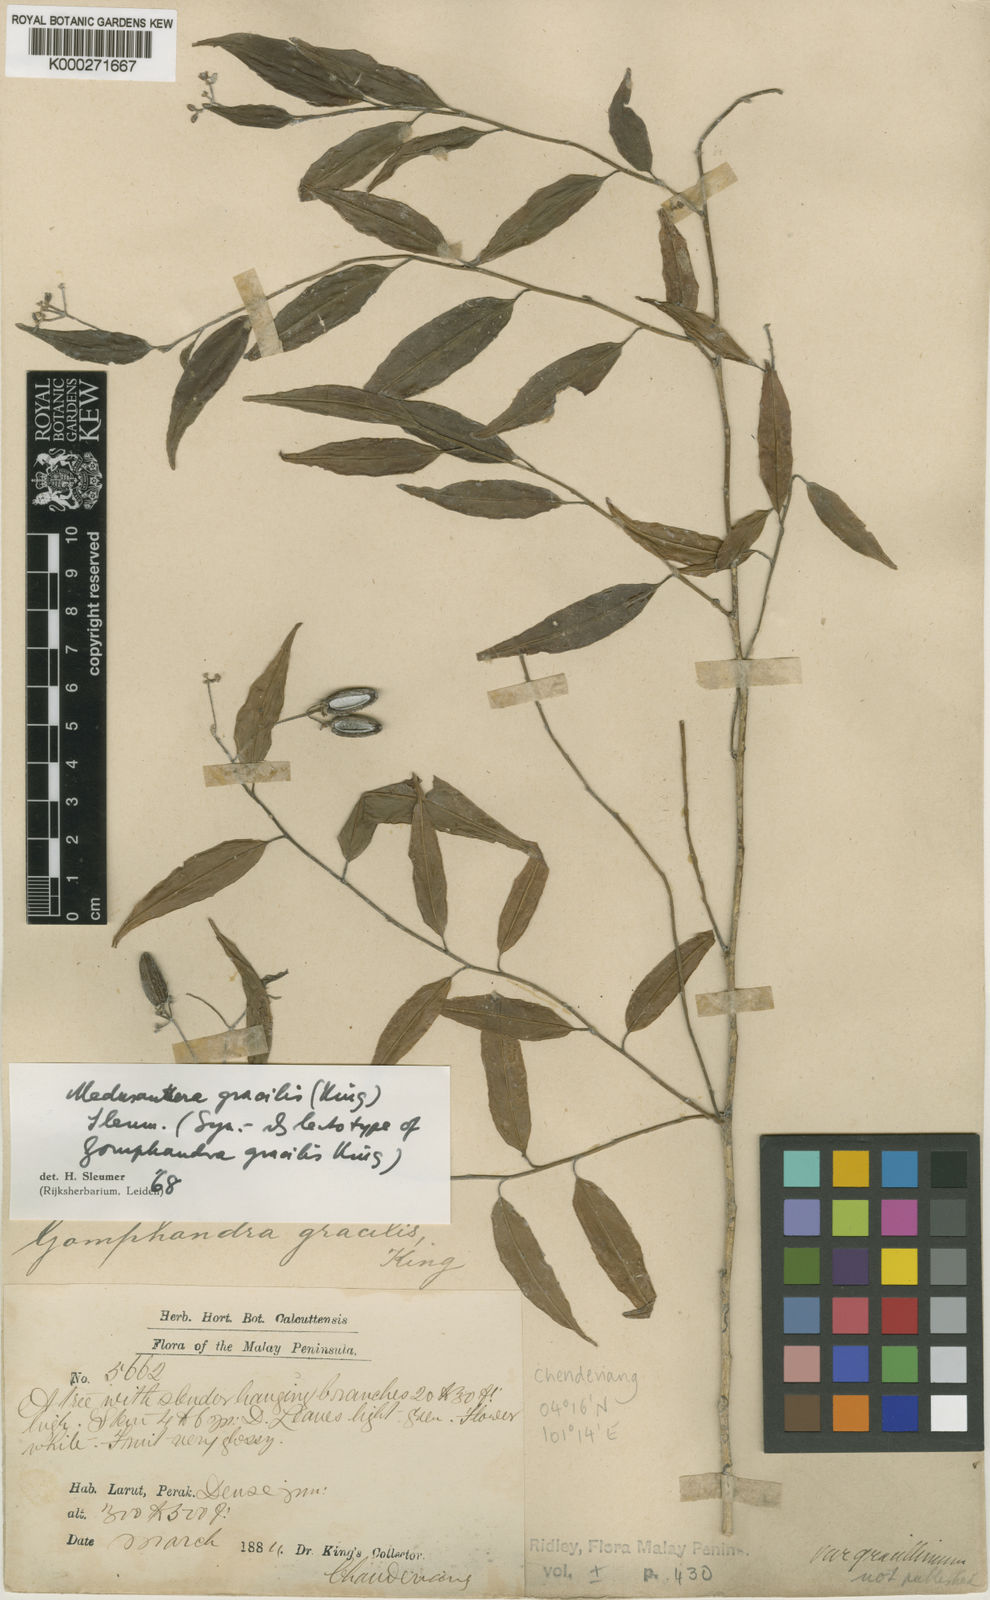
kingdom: Plantae
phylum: Tracheophyta
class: Magnoliopsida
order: Cardiopteridales
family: Stemonuraceae
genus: Medusanthera
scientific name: Medusanthera gracilis
